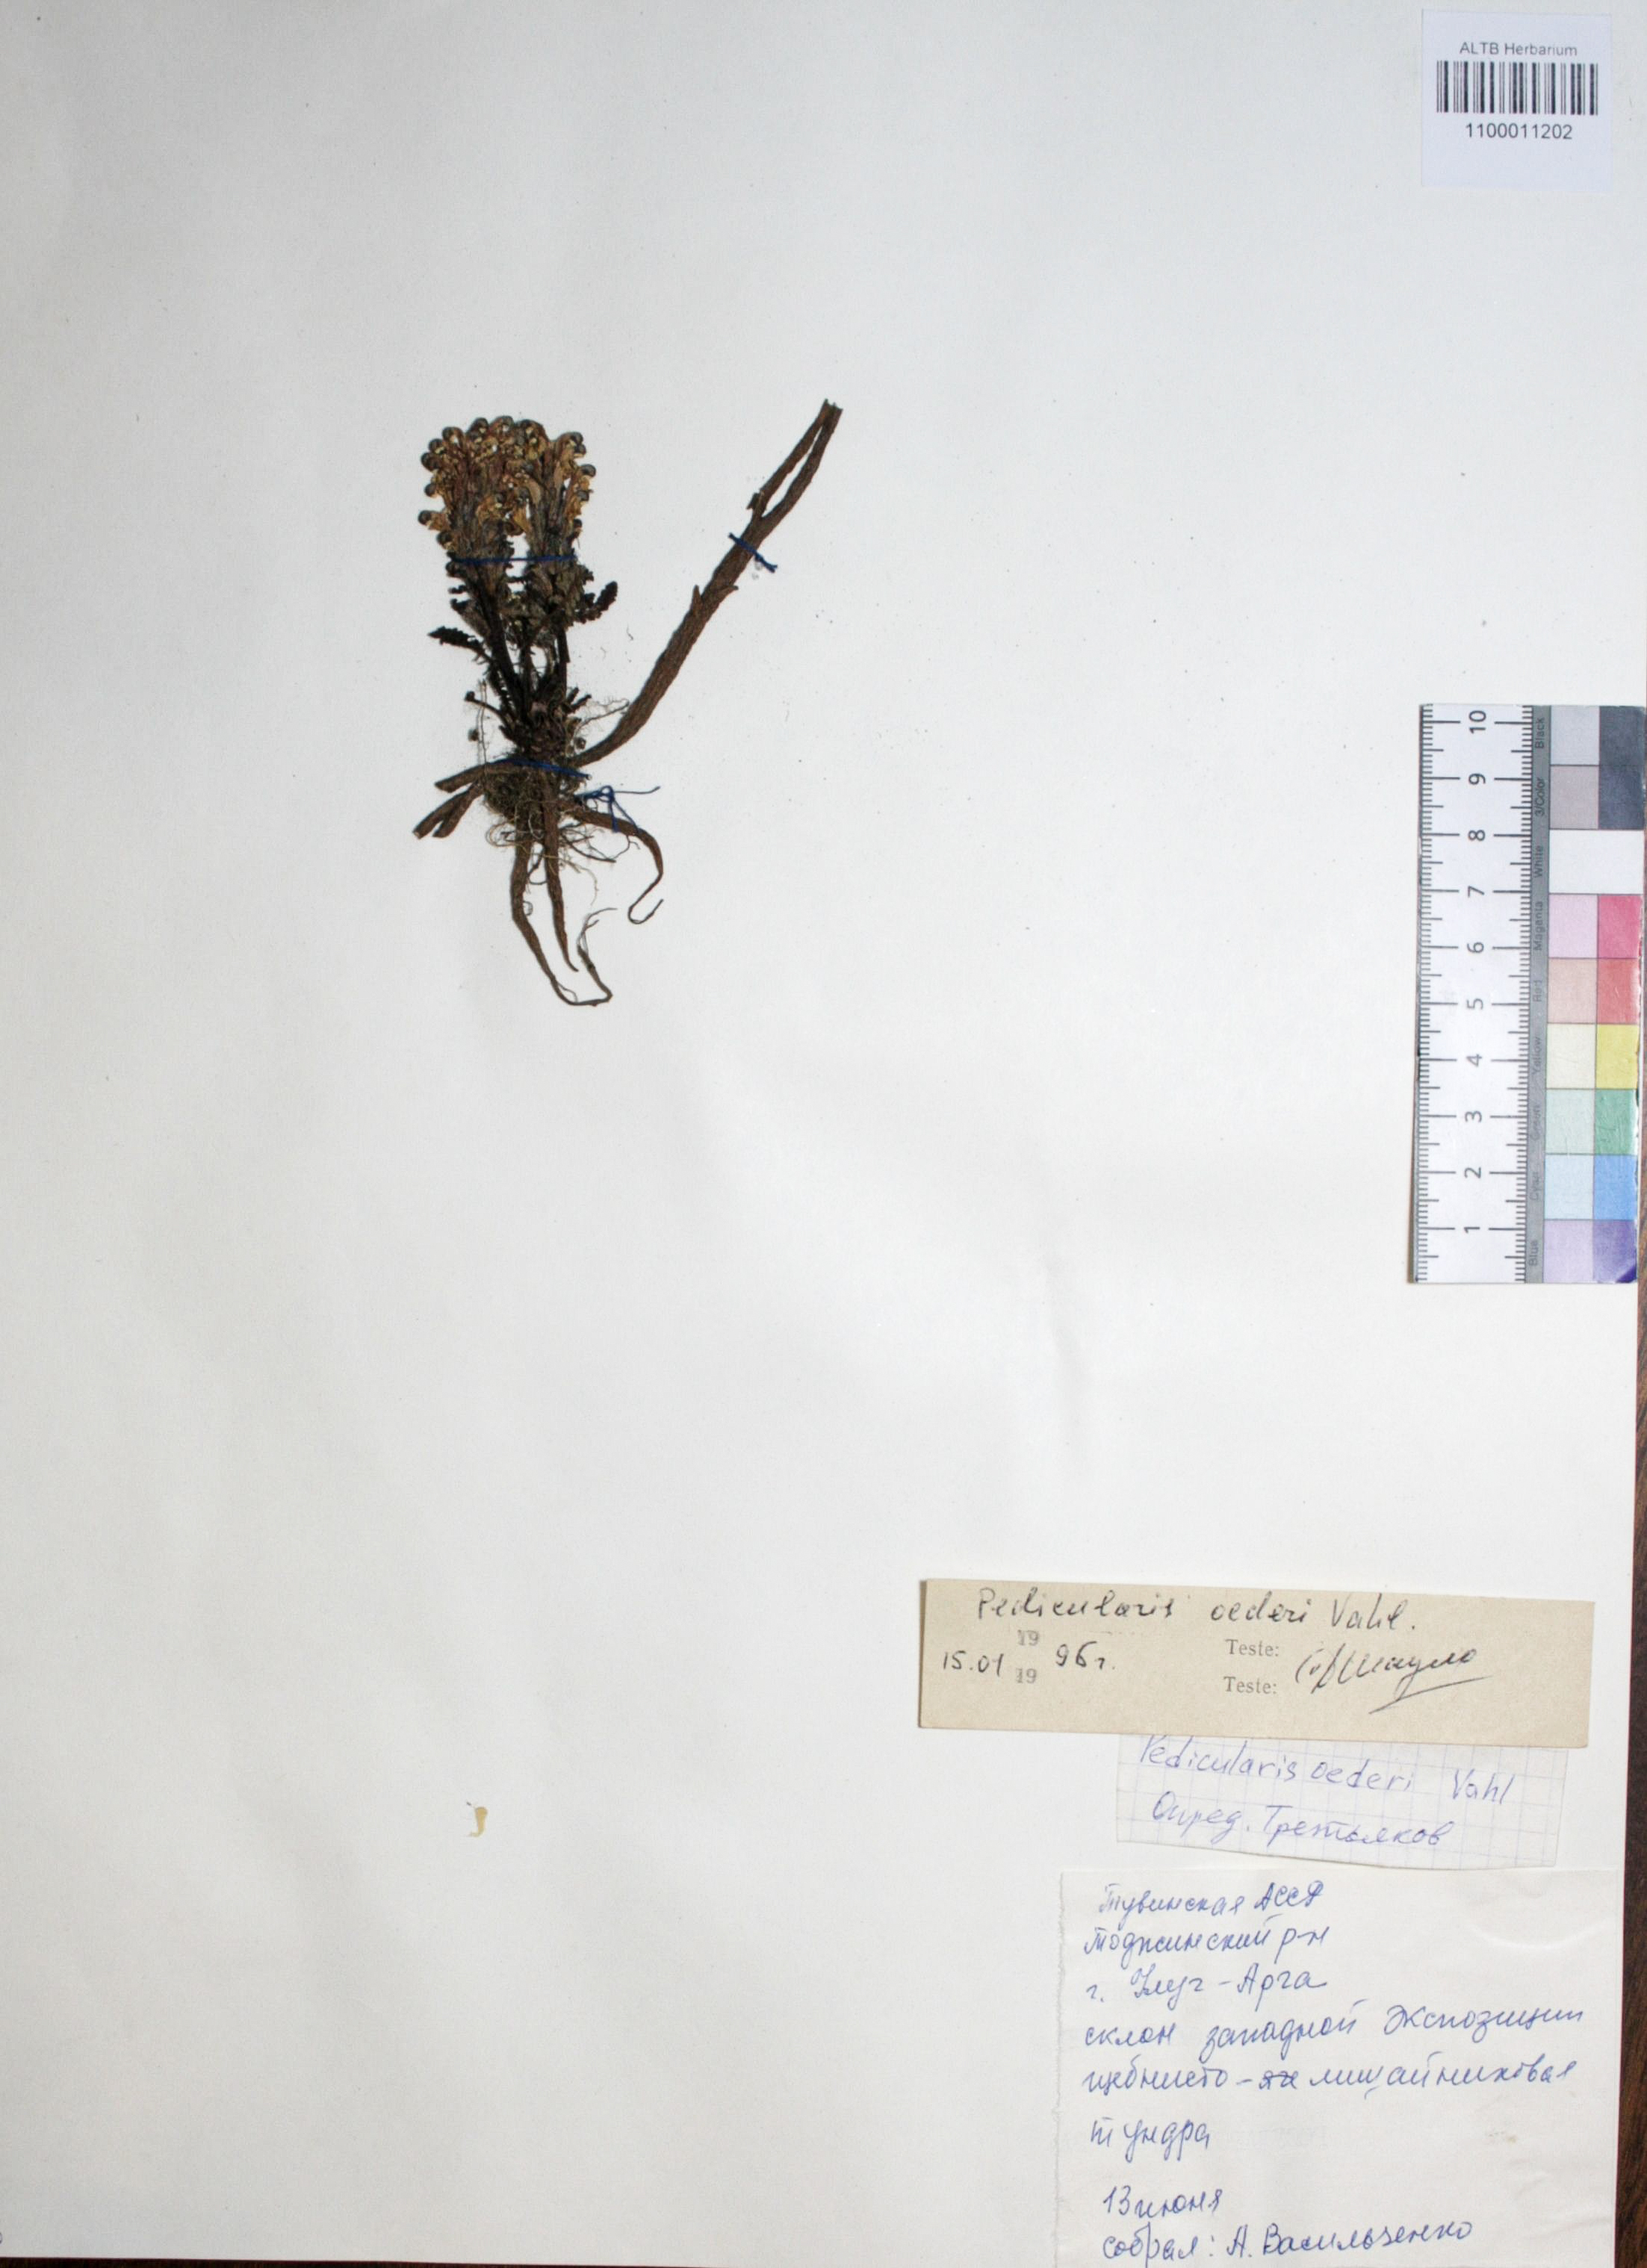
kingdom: Plantae
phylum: Tracheophyta
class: Magnoliopsida
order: Caryophyllales
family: Caryophyllaceae
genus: Silene
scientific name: Silene graminifolia
